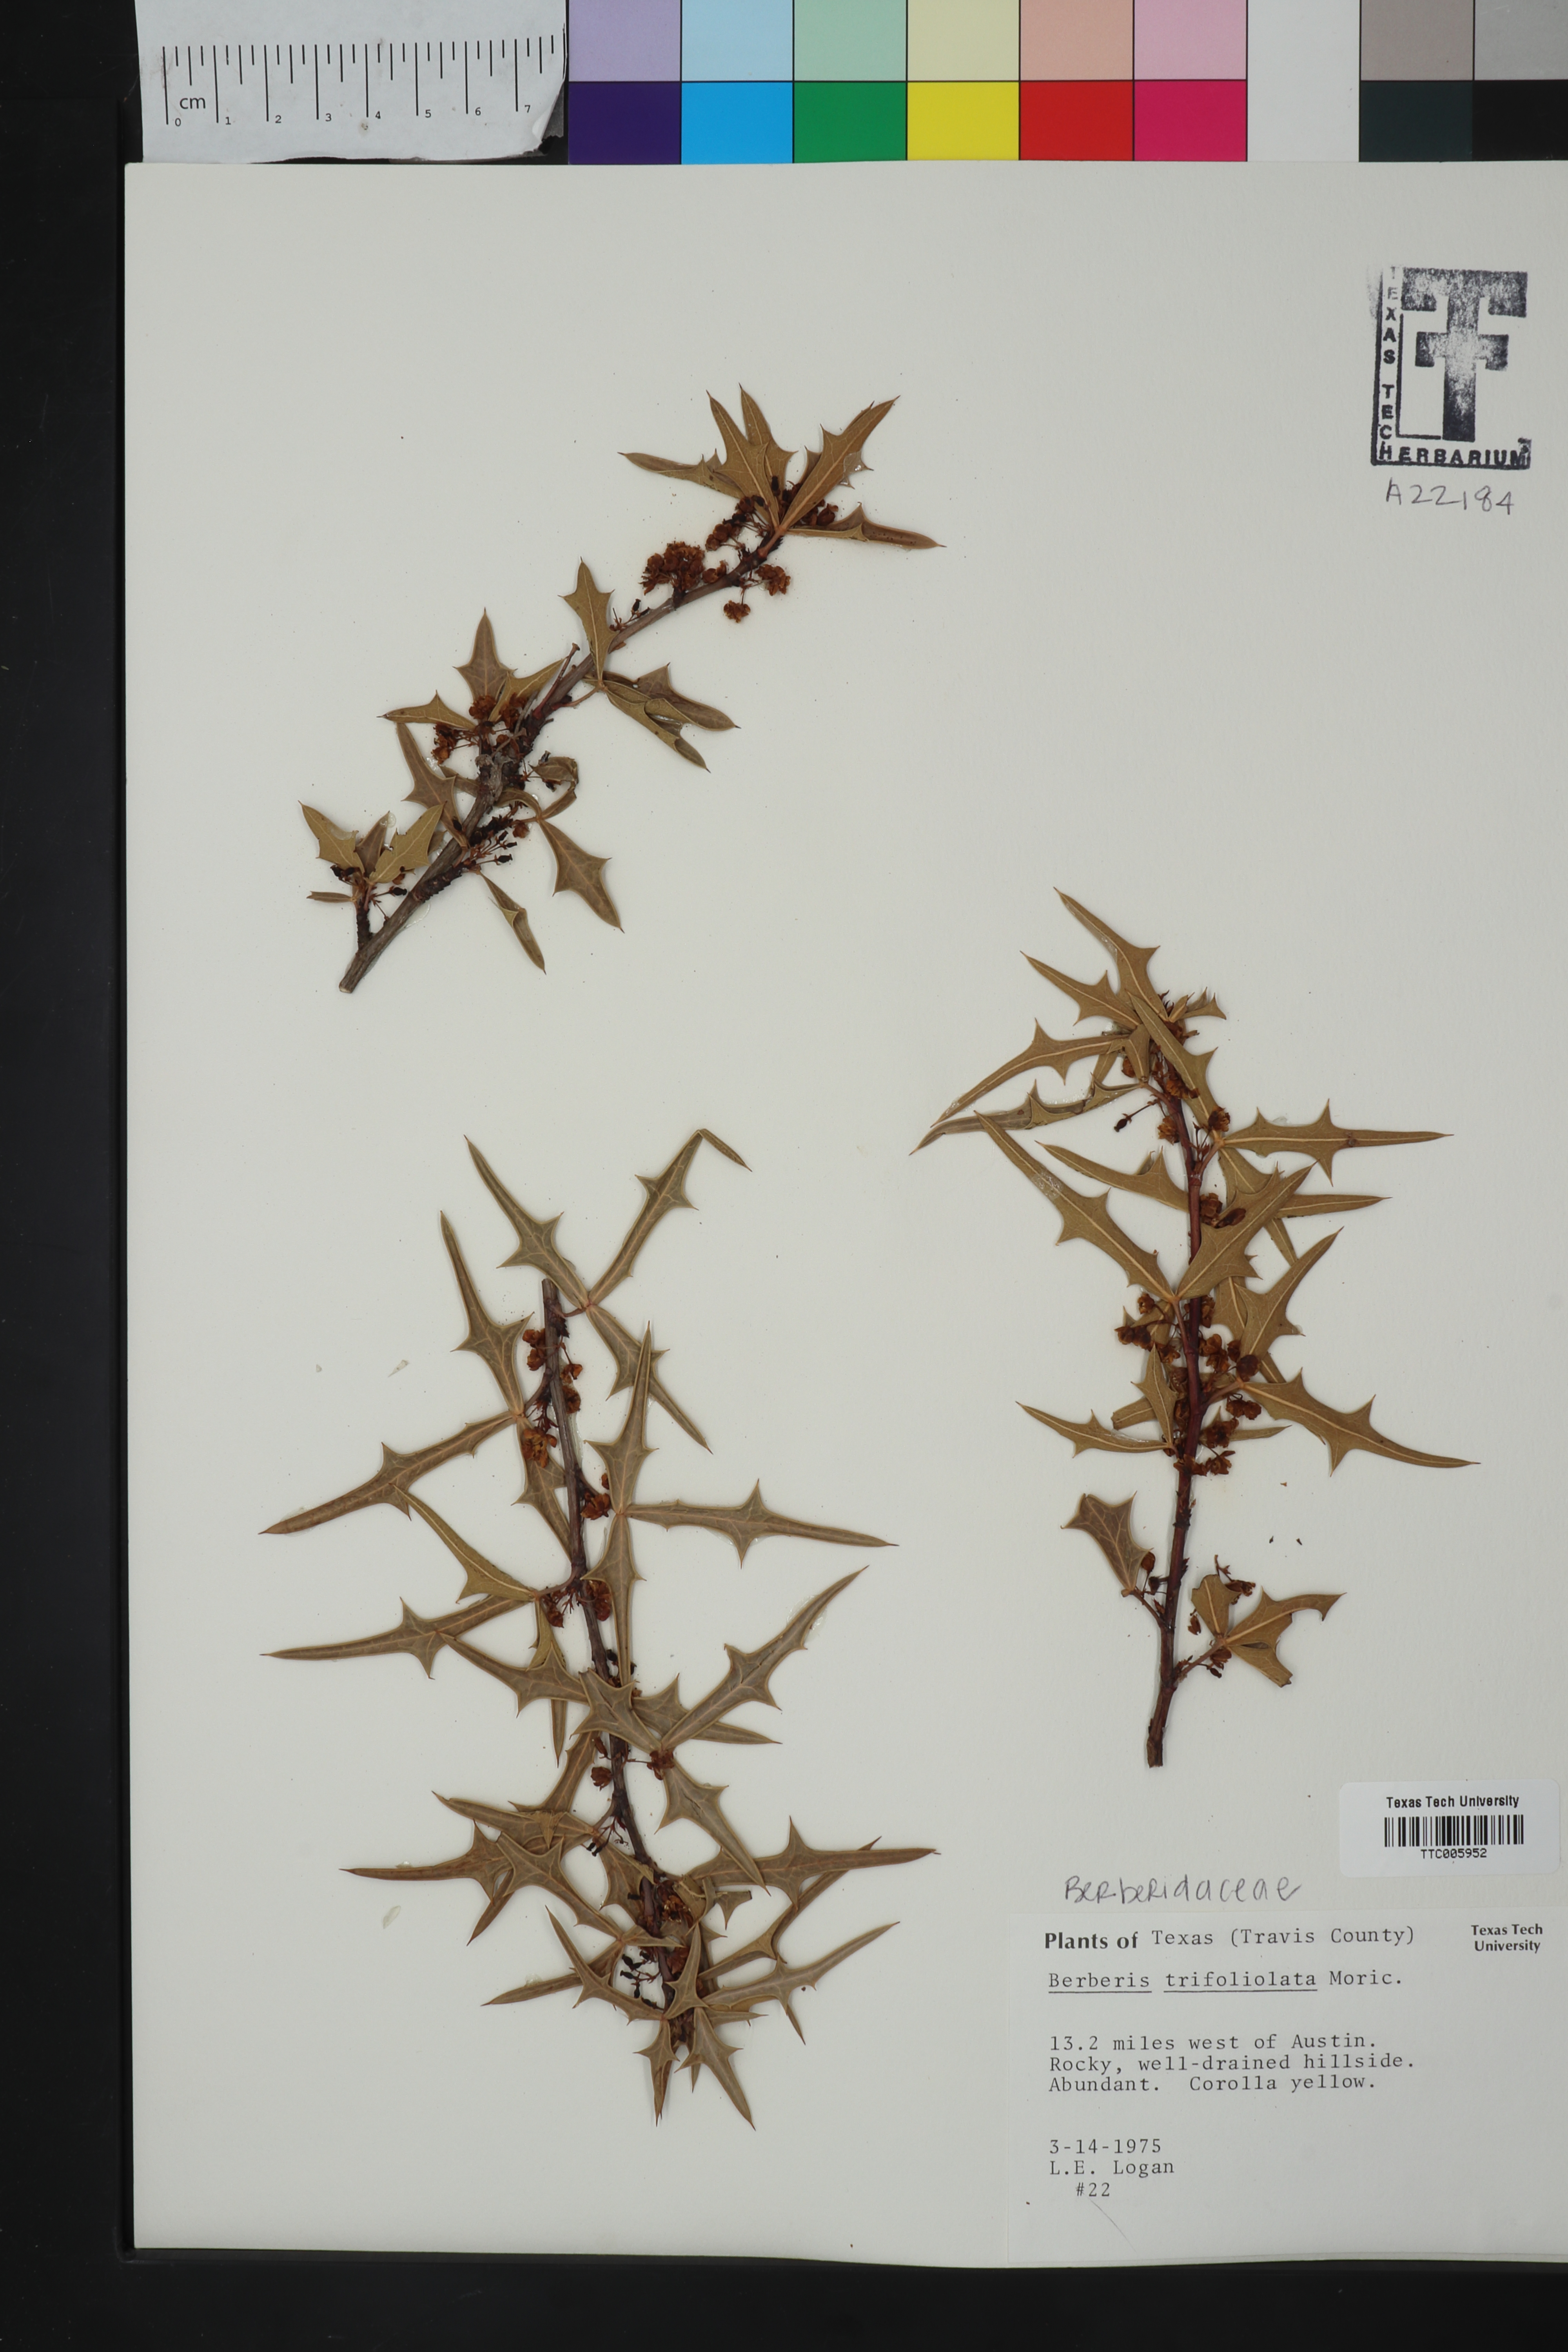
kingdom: Plantae
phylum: Tracheophyta
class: Magnoliopsida
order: Ranunculales
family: Berberidaceae
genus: Alloberberis
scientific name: Alloberberis trifoliolata
